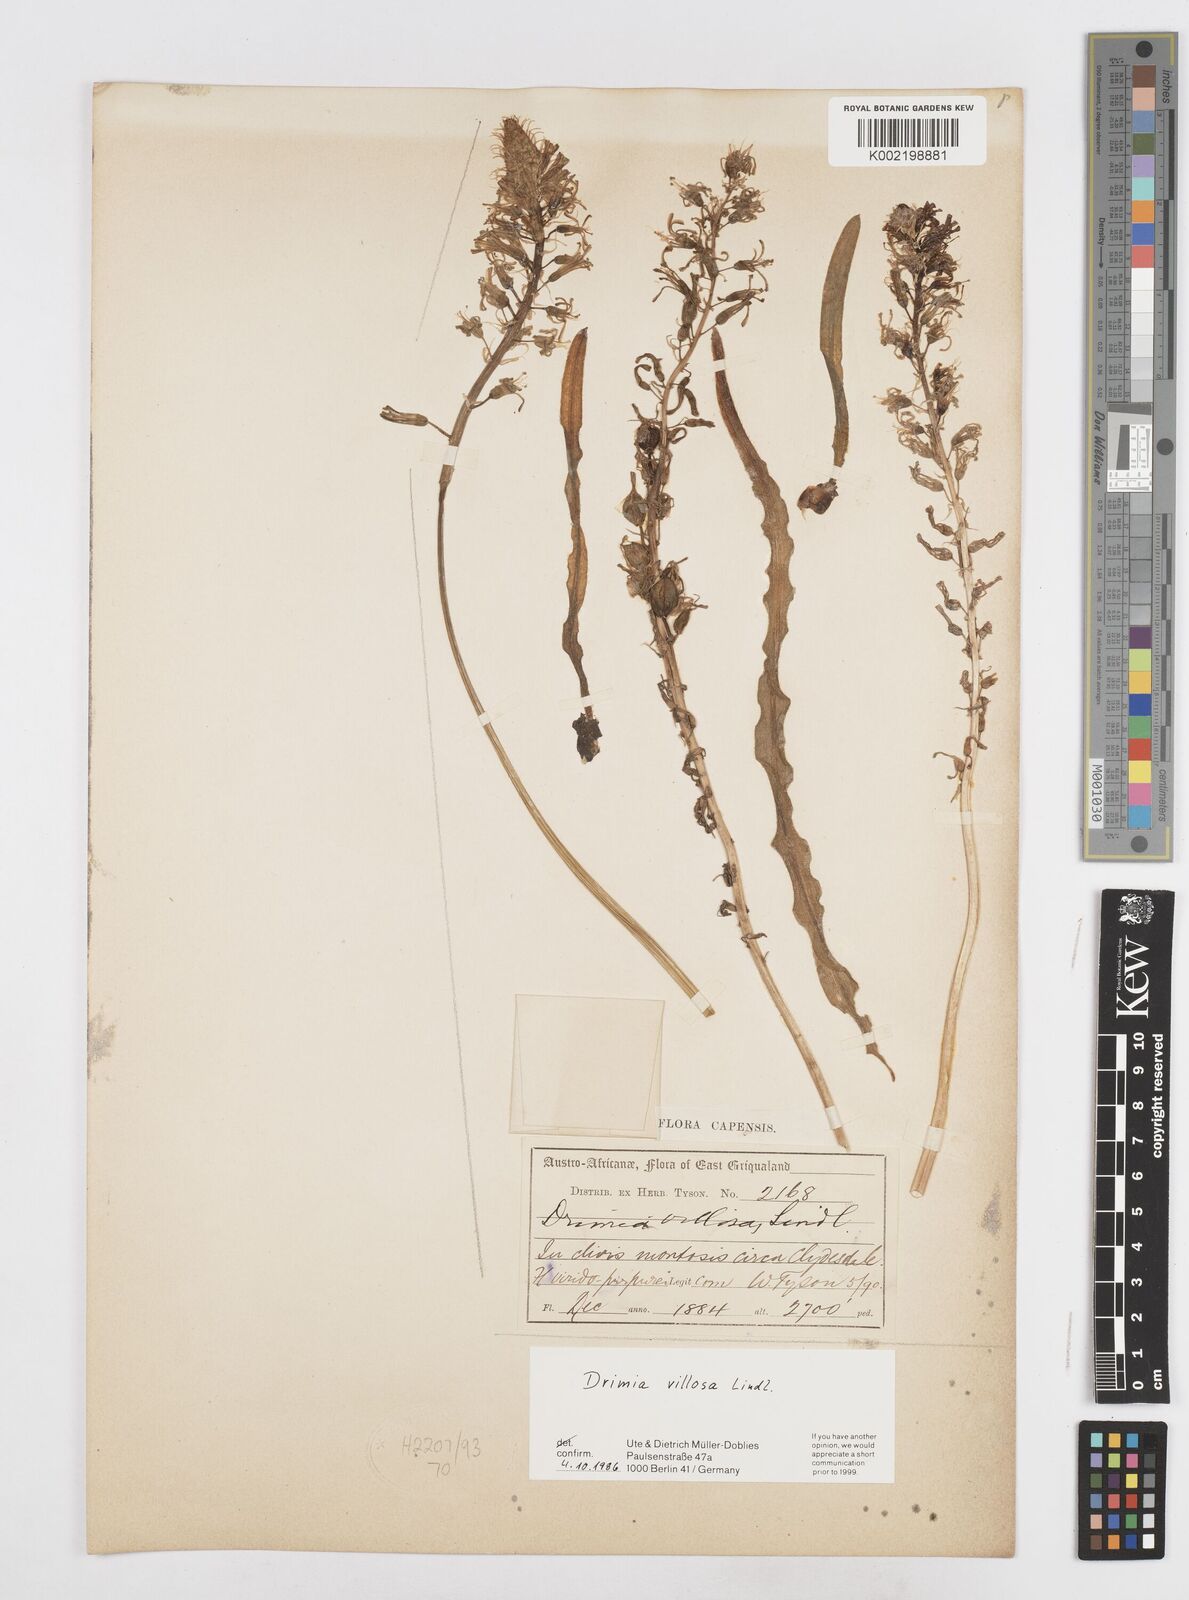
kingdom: Plantae
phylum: Tracheophyta
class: Liliopsida
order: Asparagales
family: Asparagaceae
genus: Drimia
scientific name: Drimia elata
